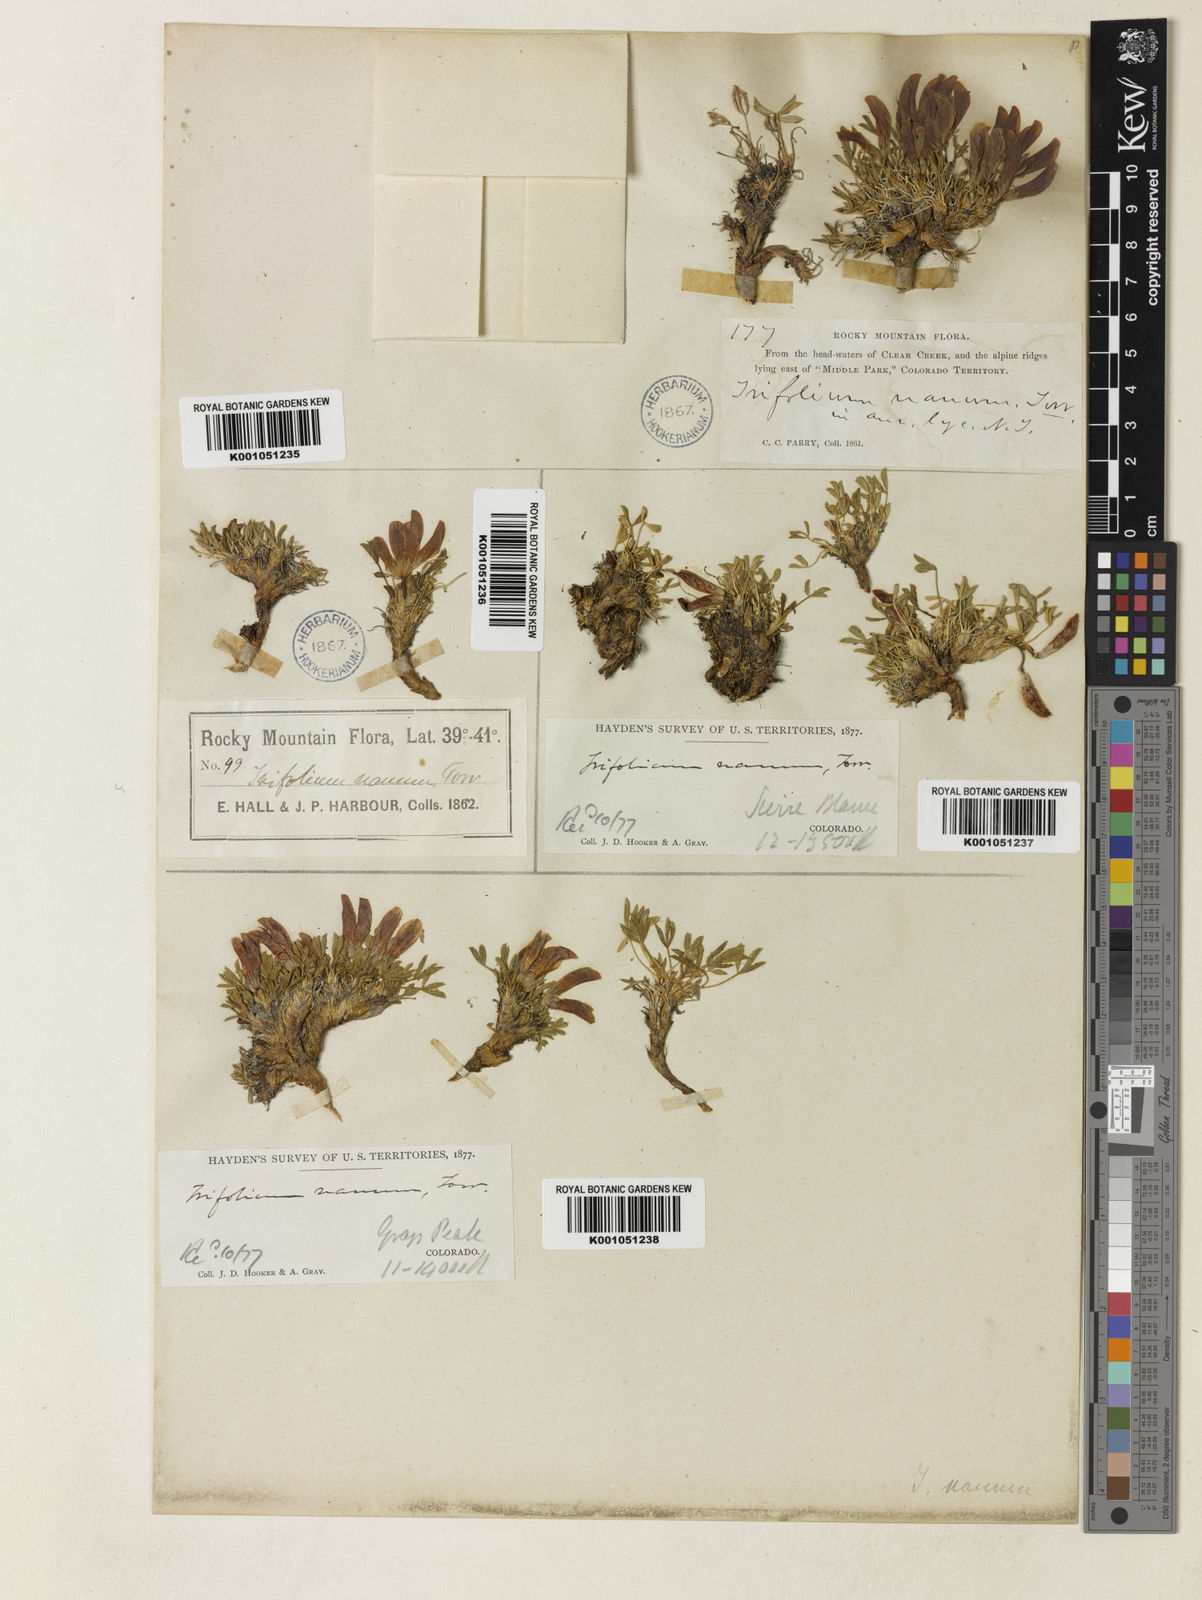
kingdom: Plantae
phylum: Tracheophyta
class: Magnoliopsida
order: Fabales
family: Fabaceae
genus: Trifolium
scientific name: Trifolium nanum
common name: Tundra clover
